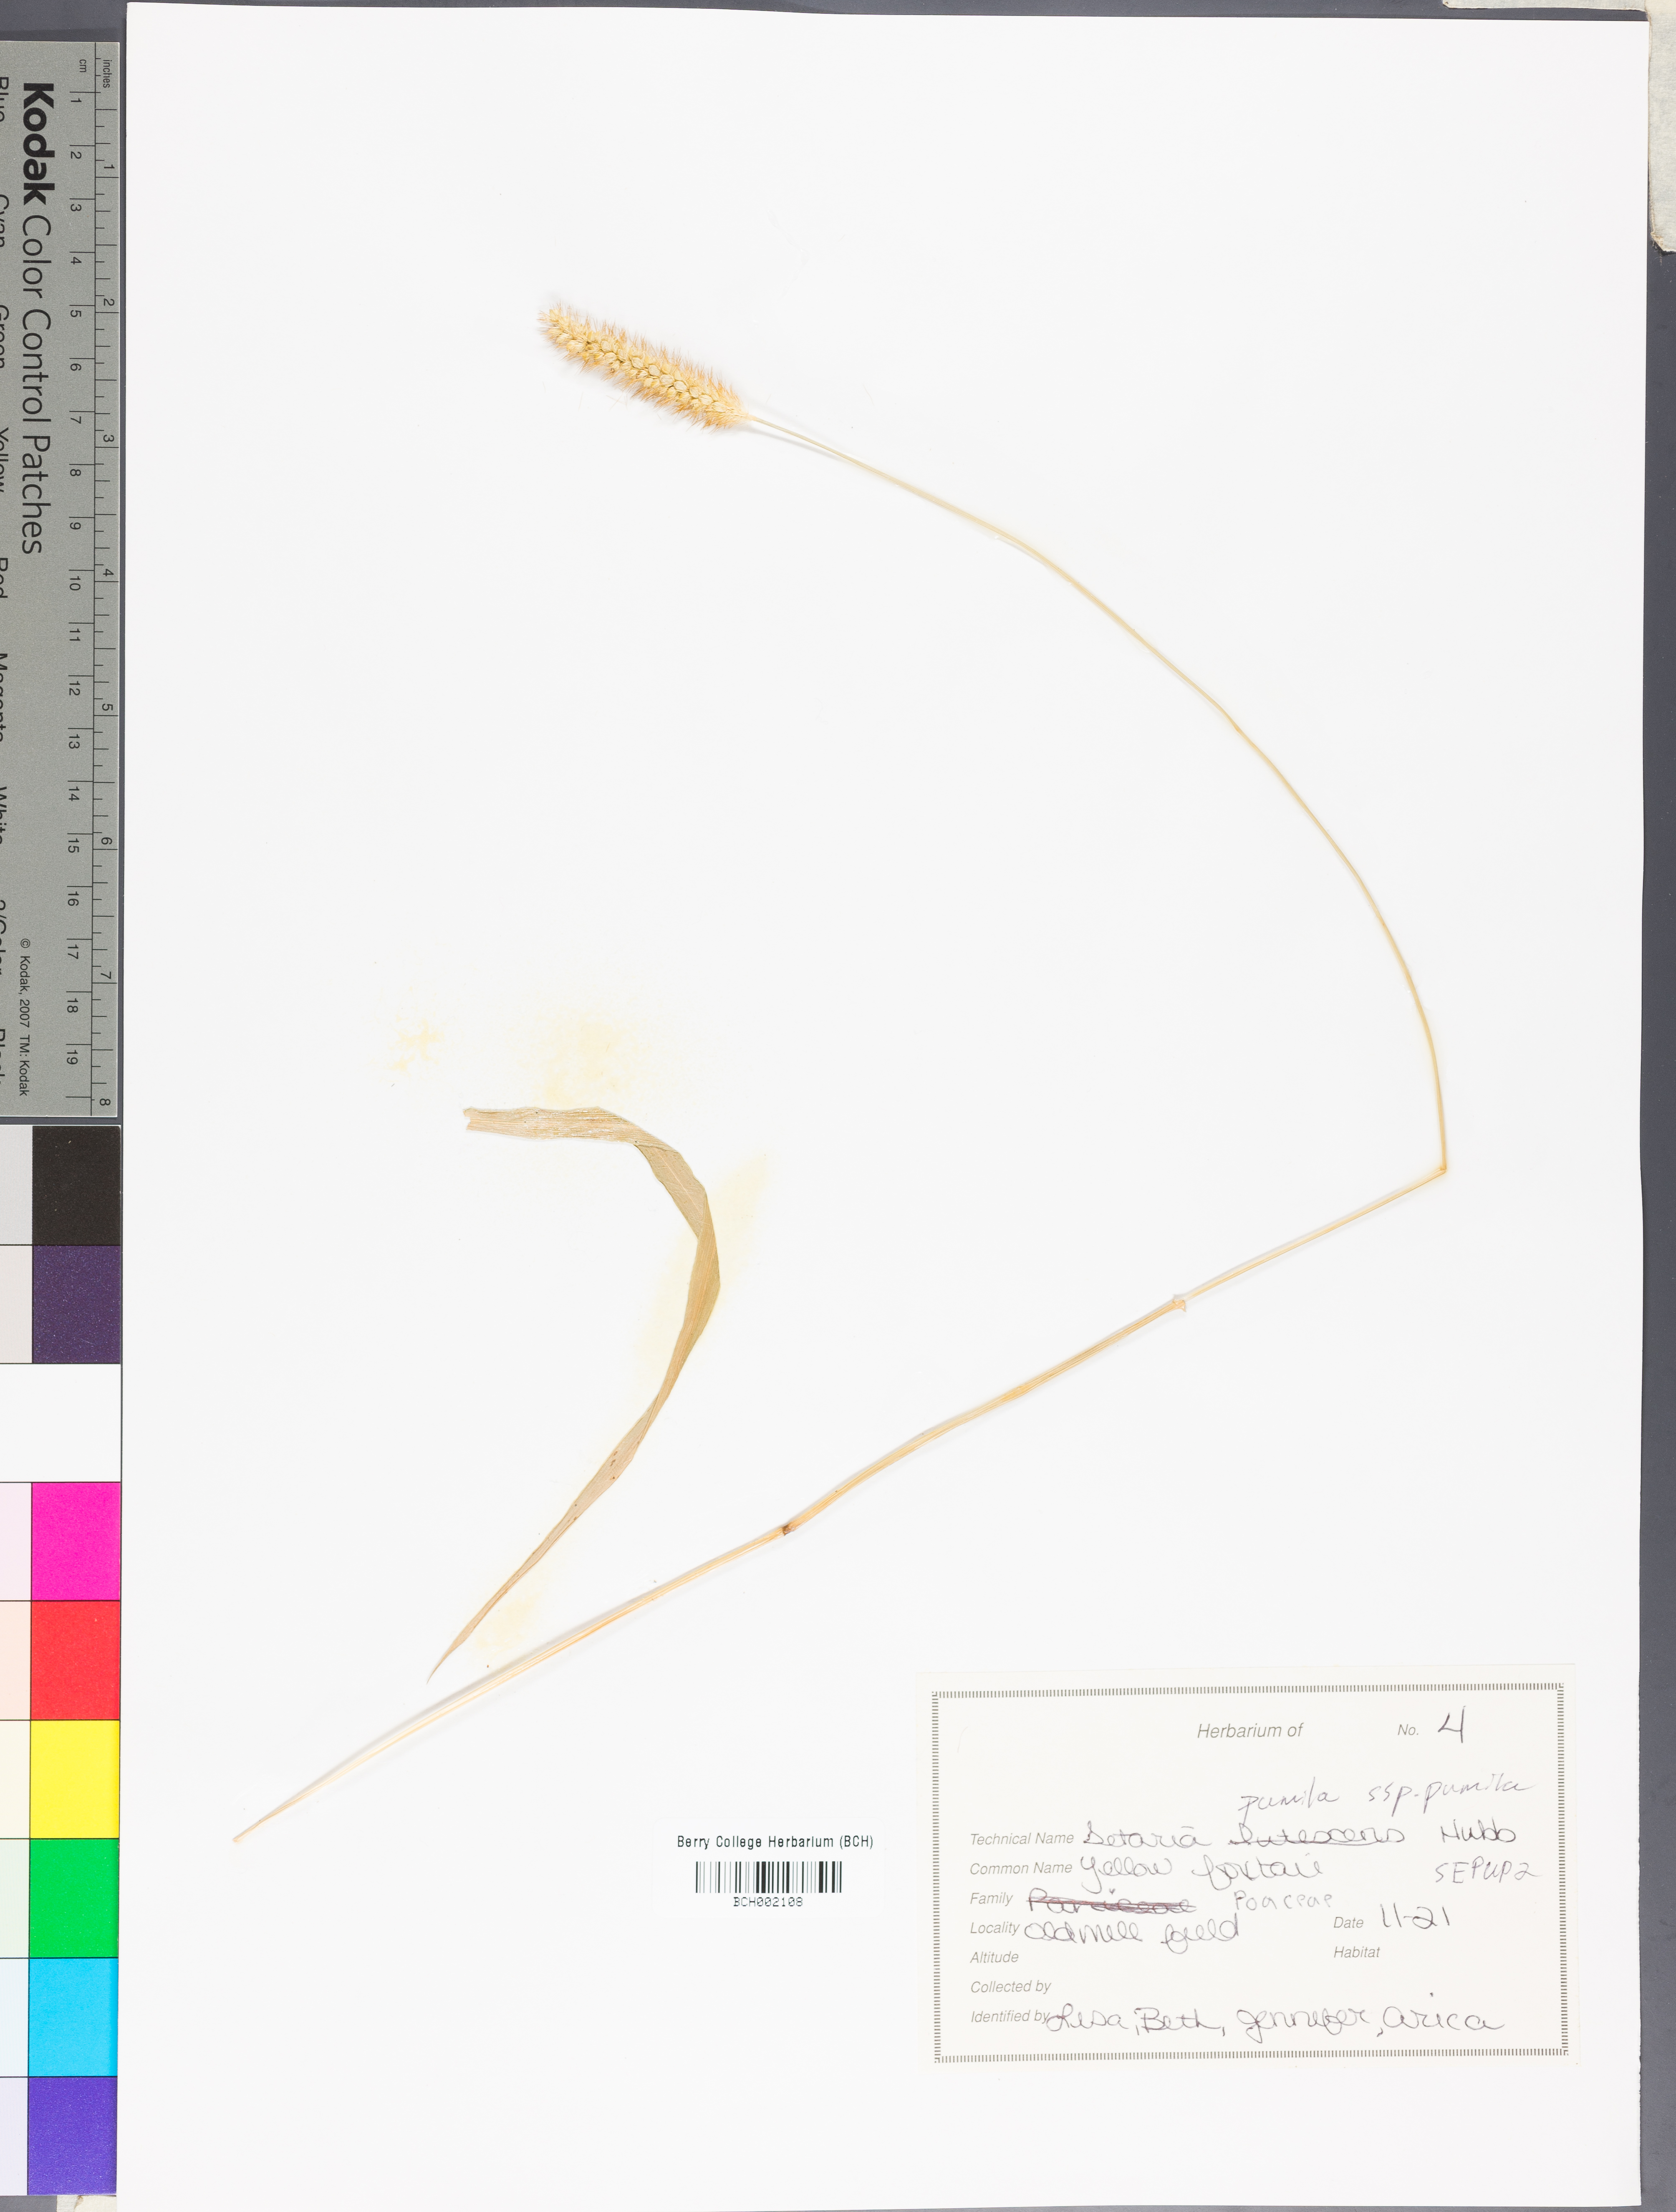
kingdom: Plantae
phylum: Tracheophyta
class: Liliopsida
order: Poales
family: Poaceae
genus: Setaria
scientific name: Setaria pumila
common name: Yellow bristle-grass
